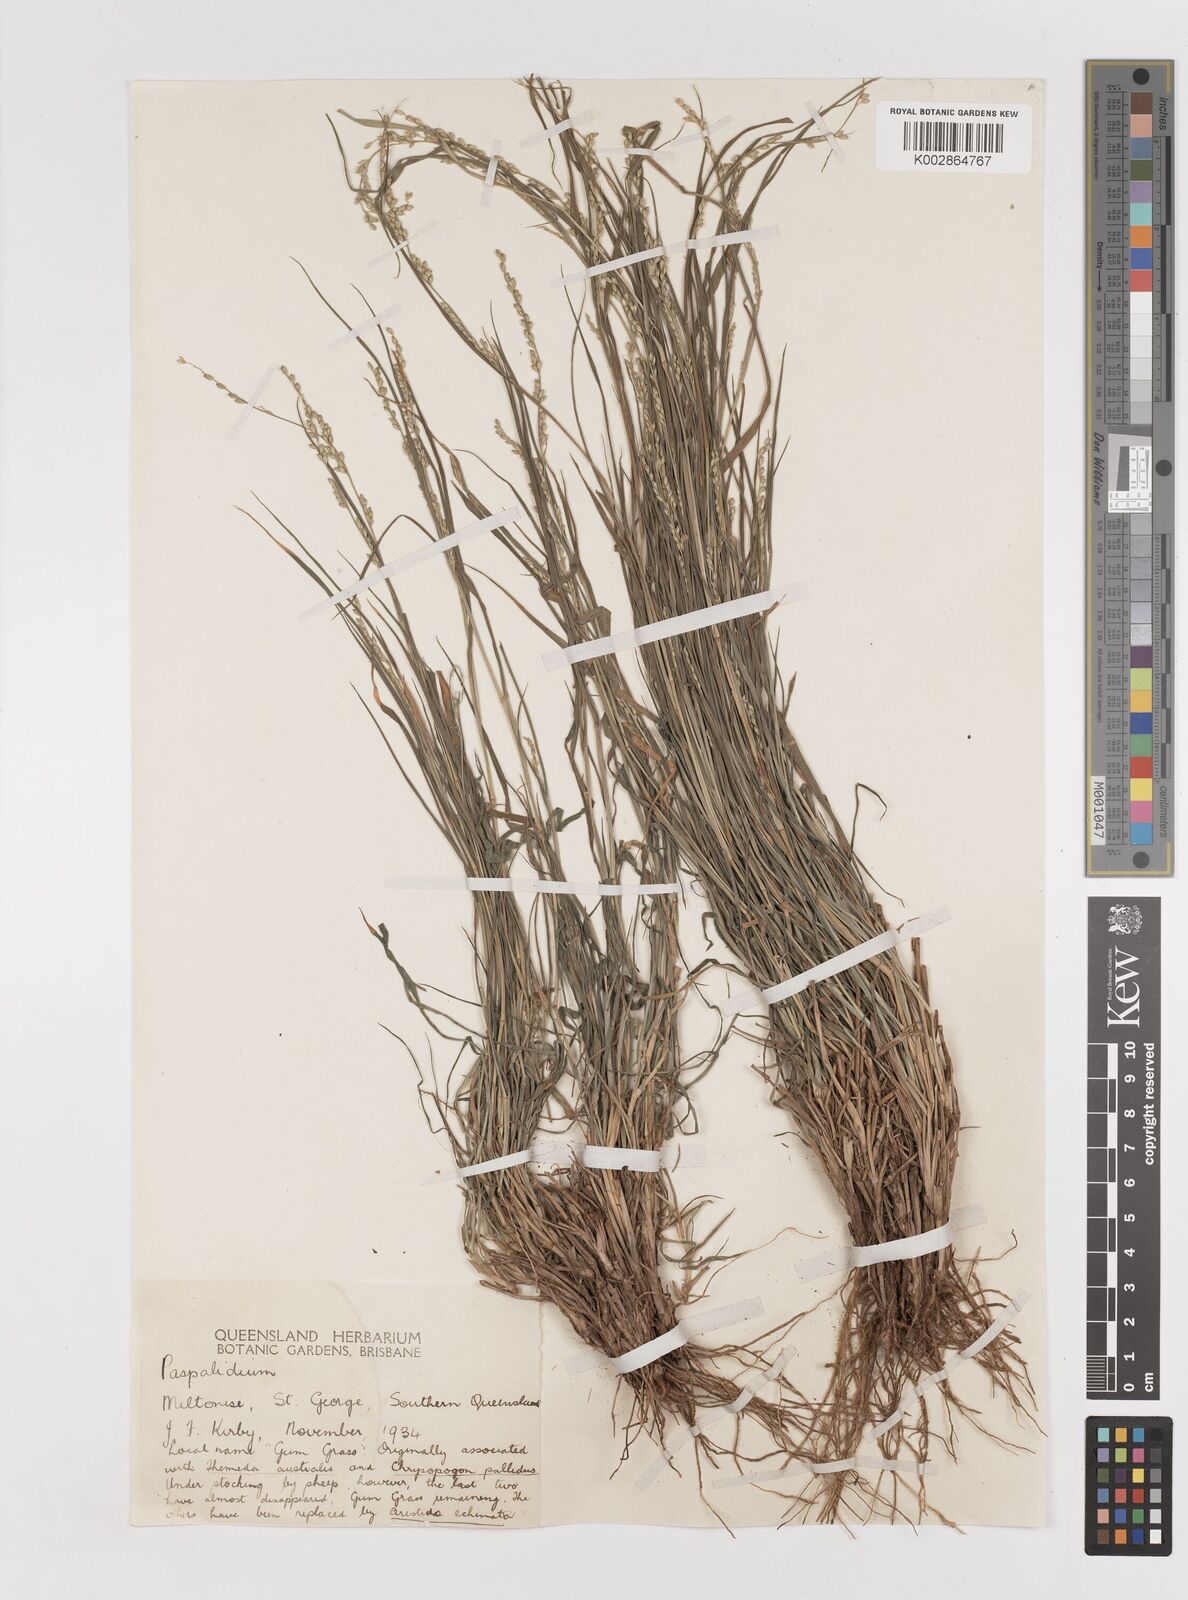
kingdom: Plantae
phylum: Tracheophyta
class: Liliopsida
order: Poales
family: Poaceae
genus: Setaria
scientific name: Setaria constricta
